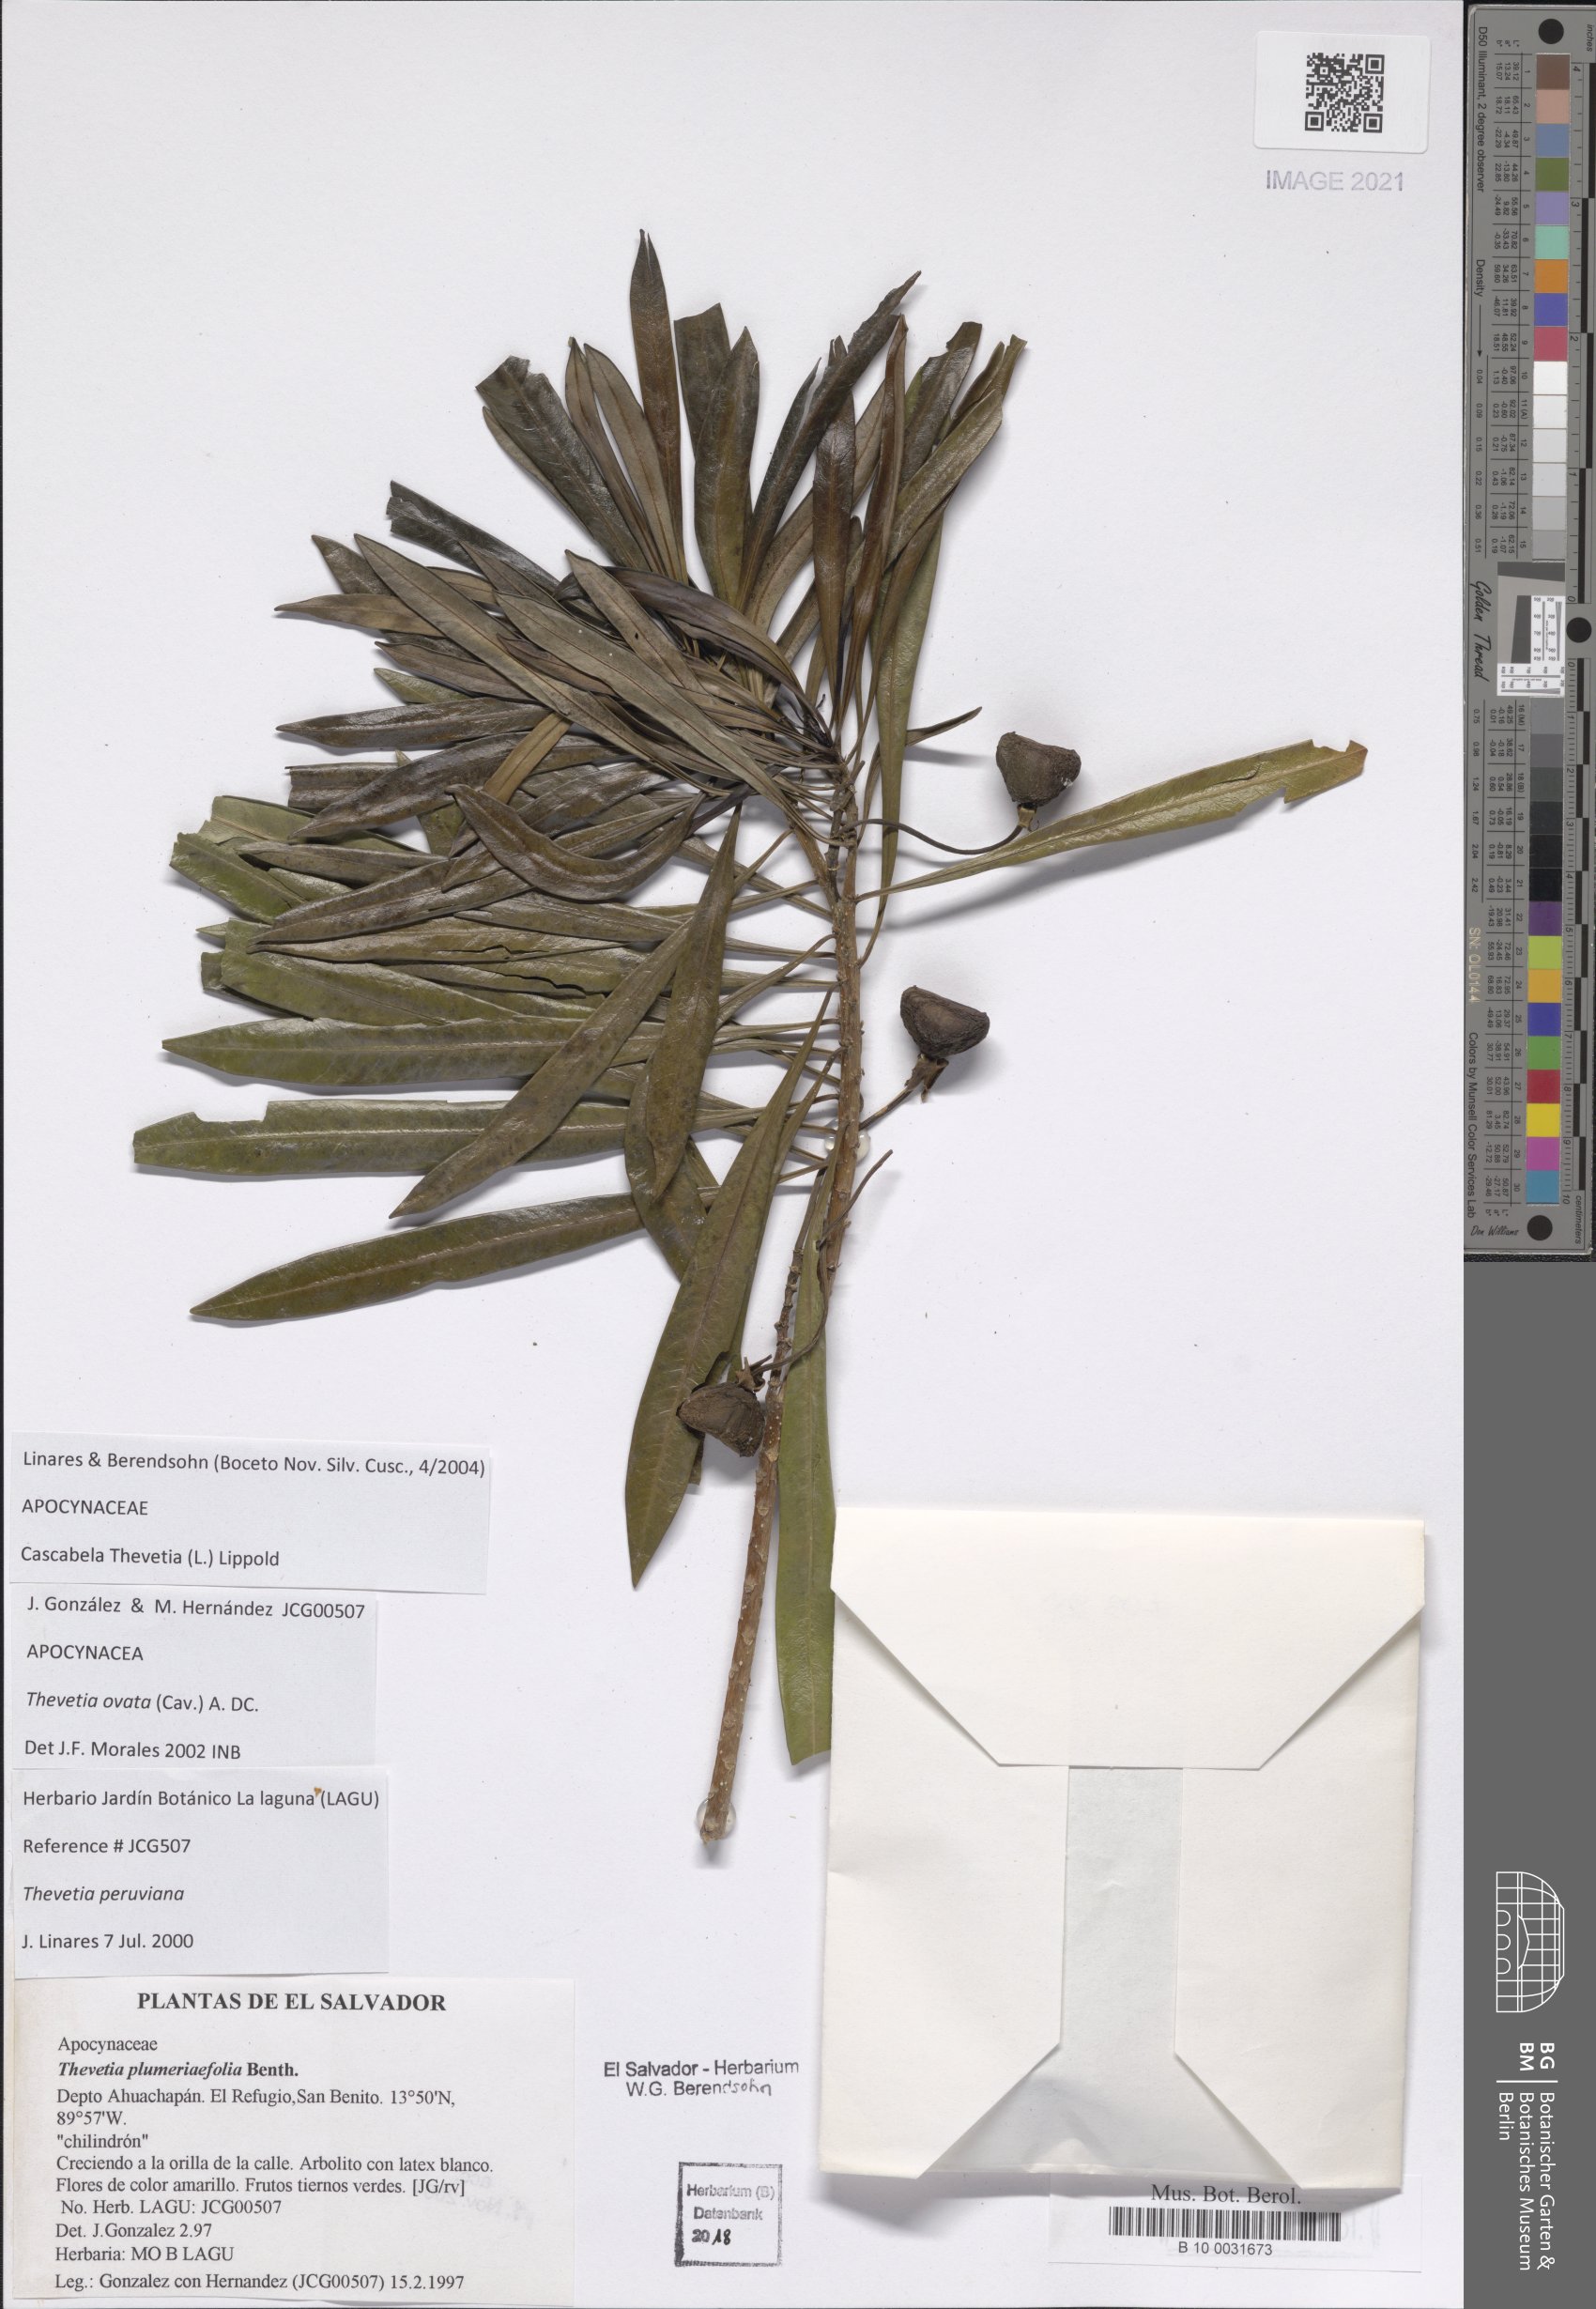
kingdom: Plantae
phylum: Tracheophyta
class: Magnoliopsida
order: Gentianales
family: Apocynaceae
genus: Cascabela
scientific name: Cascabela ovata
